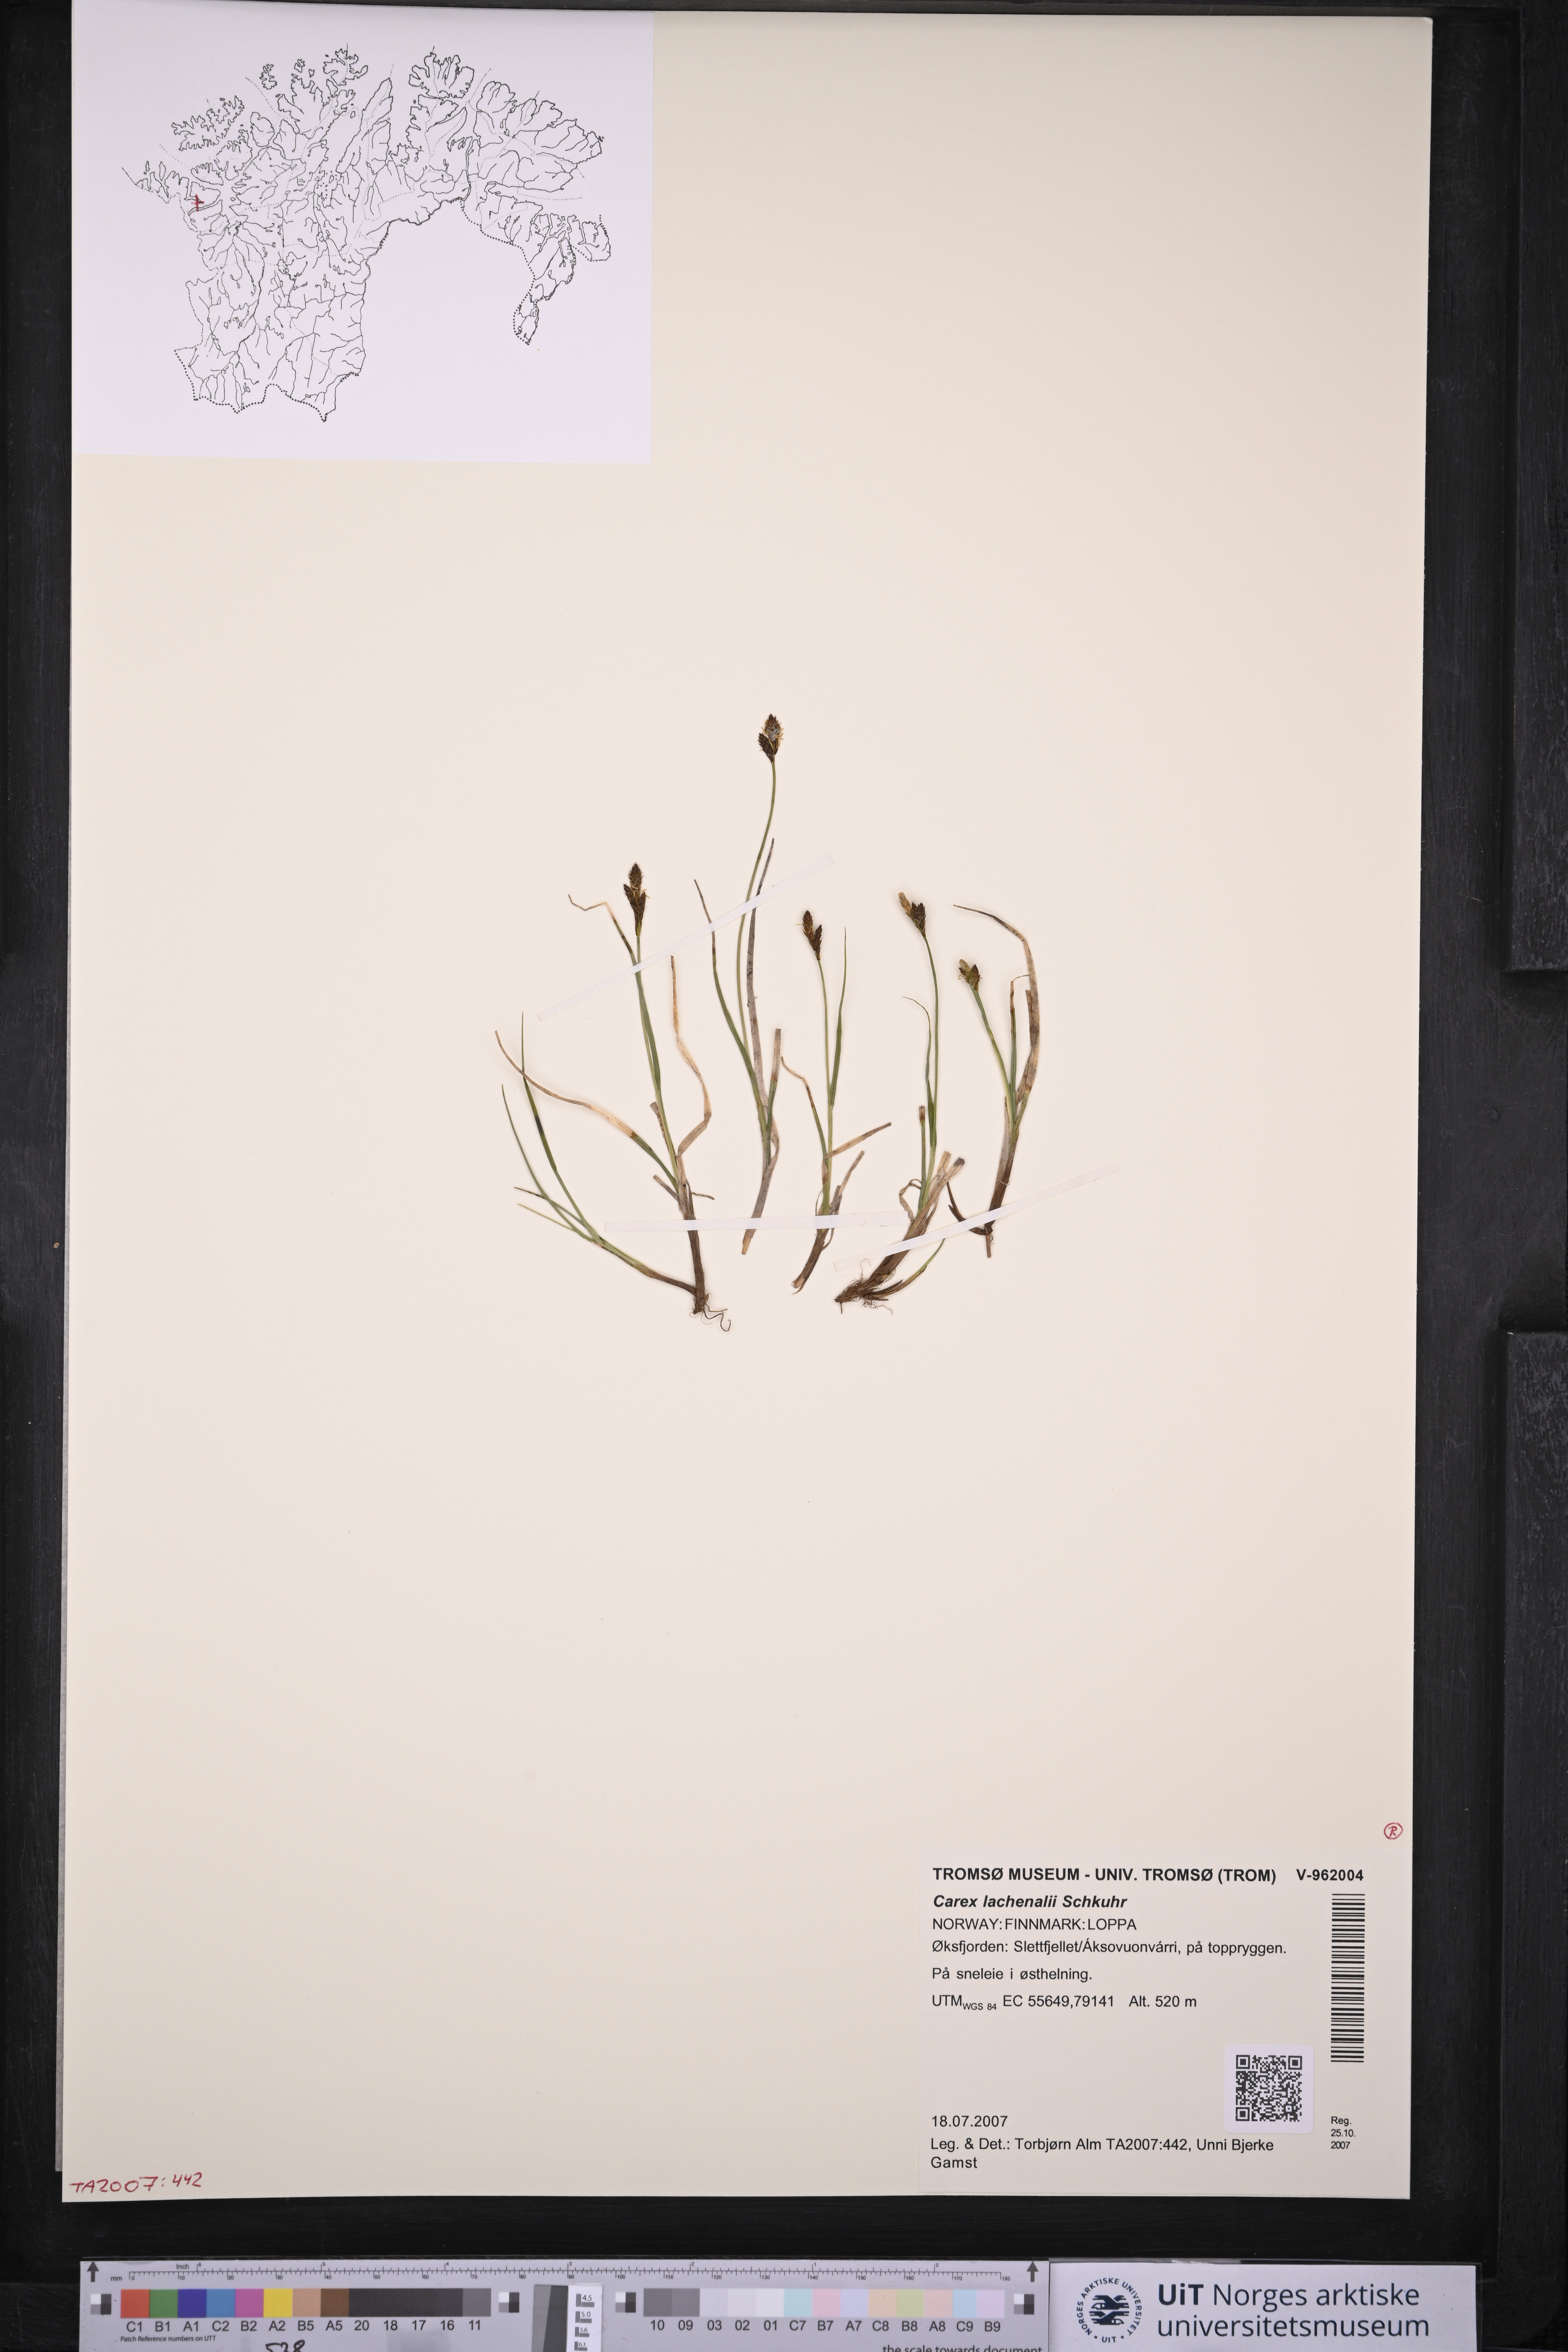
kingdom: Plantae
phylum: Tracheophyta
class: Liliopsida
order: Poales
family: Cyperaceae
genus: Carex
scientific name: Carex lachenalii
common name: Hare's-foot sedge
